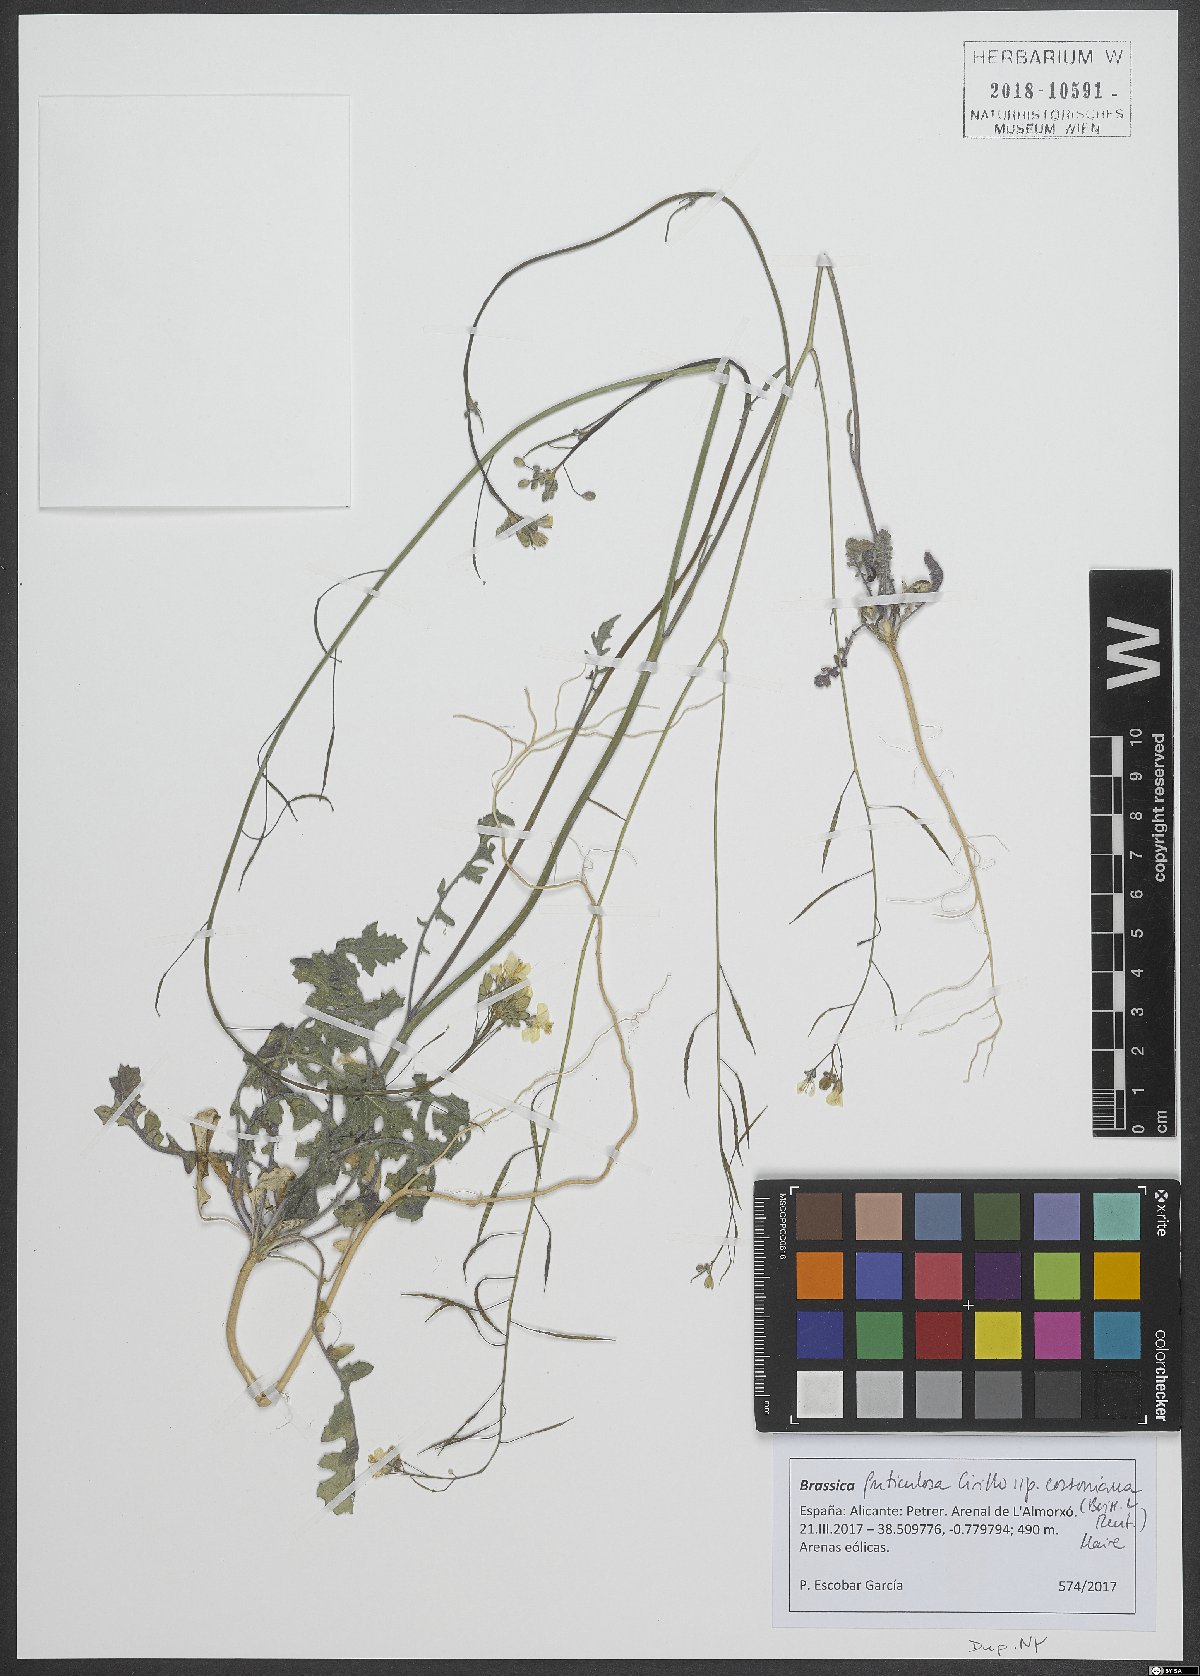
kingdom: Plantae
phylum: Tracheophyta
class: Magnoliopsida
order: Brassicales
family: Brassicaceae
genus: Brassica
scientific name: Brassica fruticulosa
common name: Twiggy turnip
